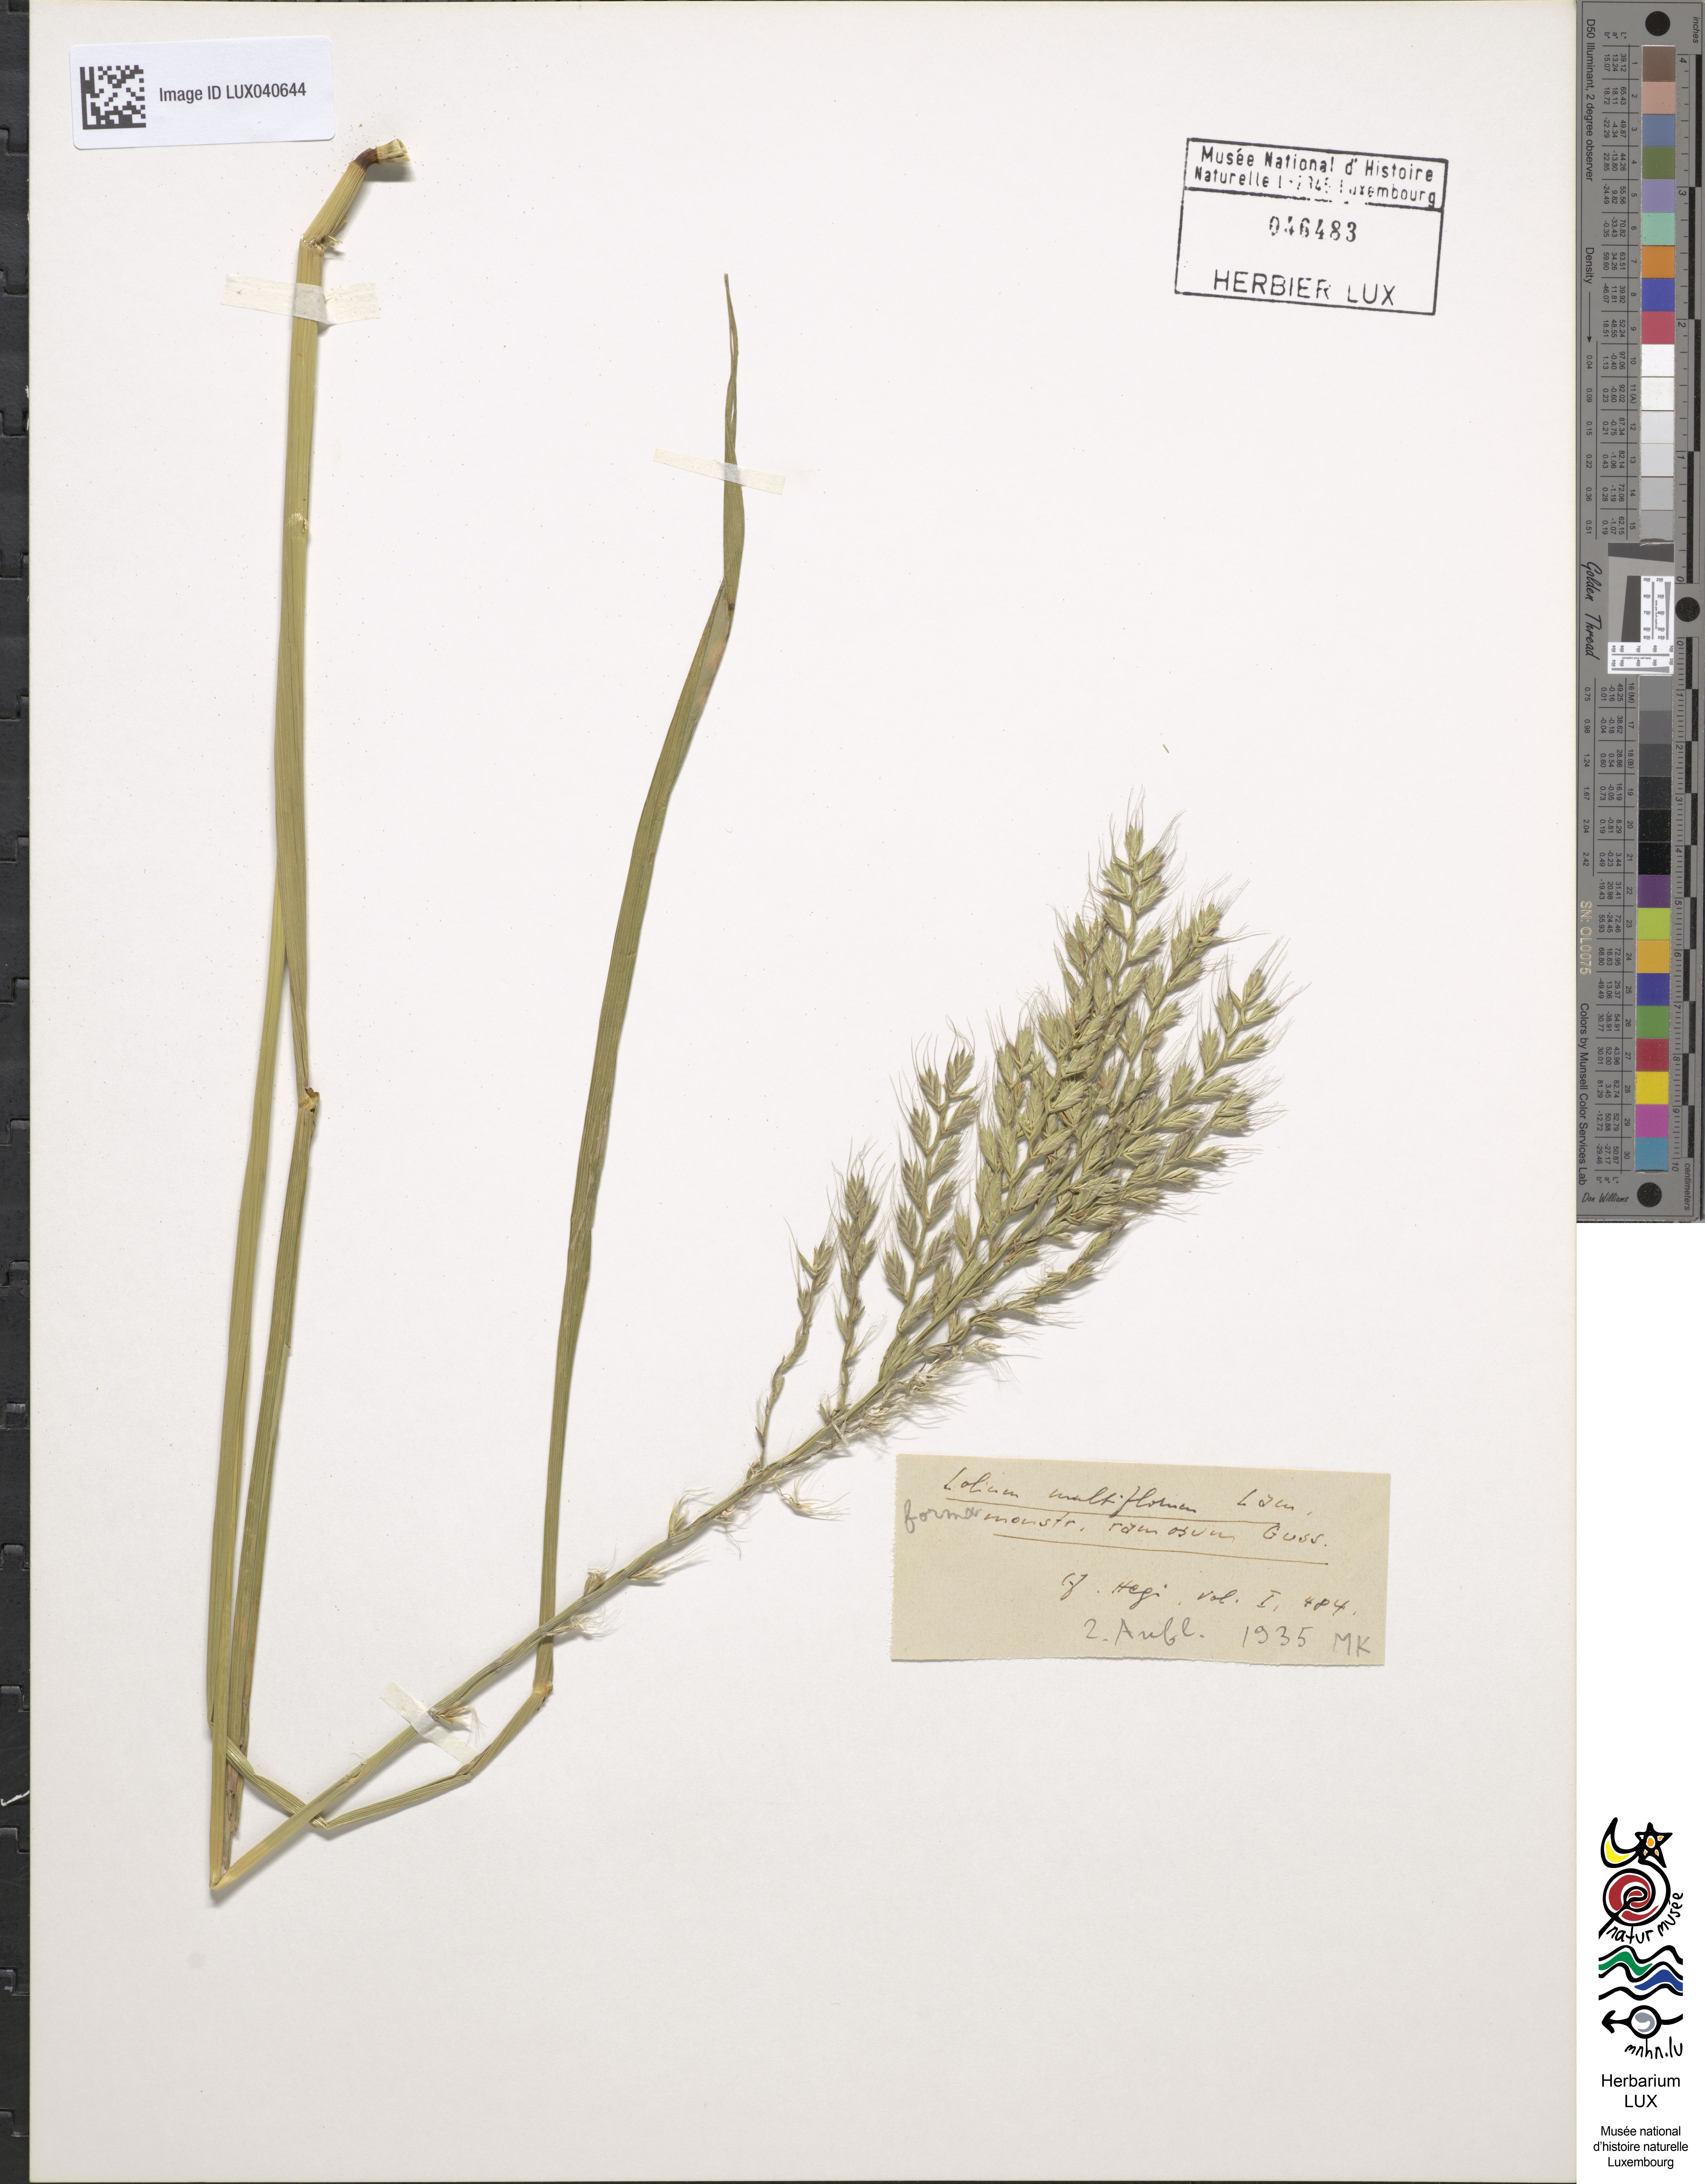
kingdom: Plantae
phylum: Tracheophyta
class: Liliopsida
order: Poales
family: Poaceae
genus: Lolium
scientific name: Lolium multiflorum
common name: Annual ryegrass
